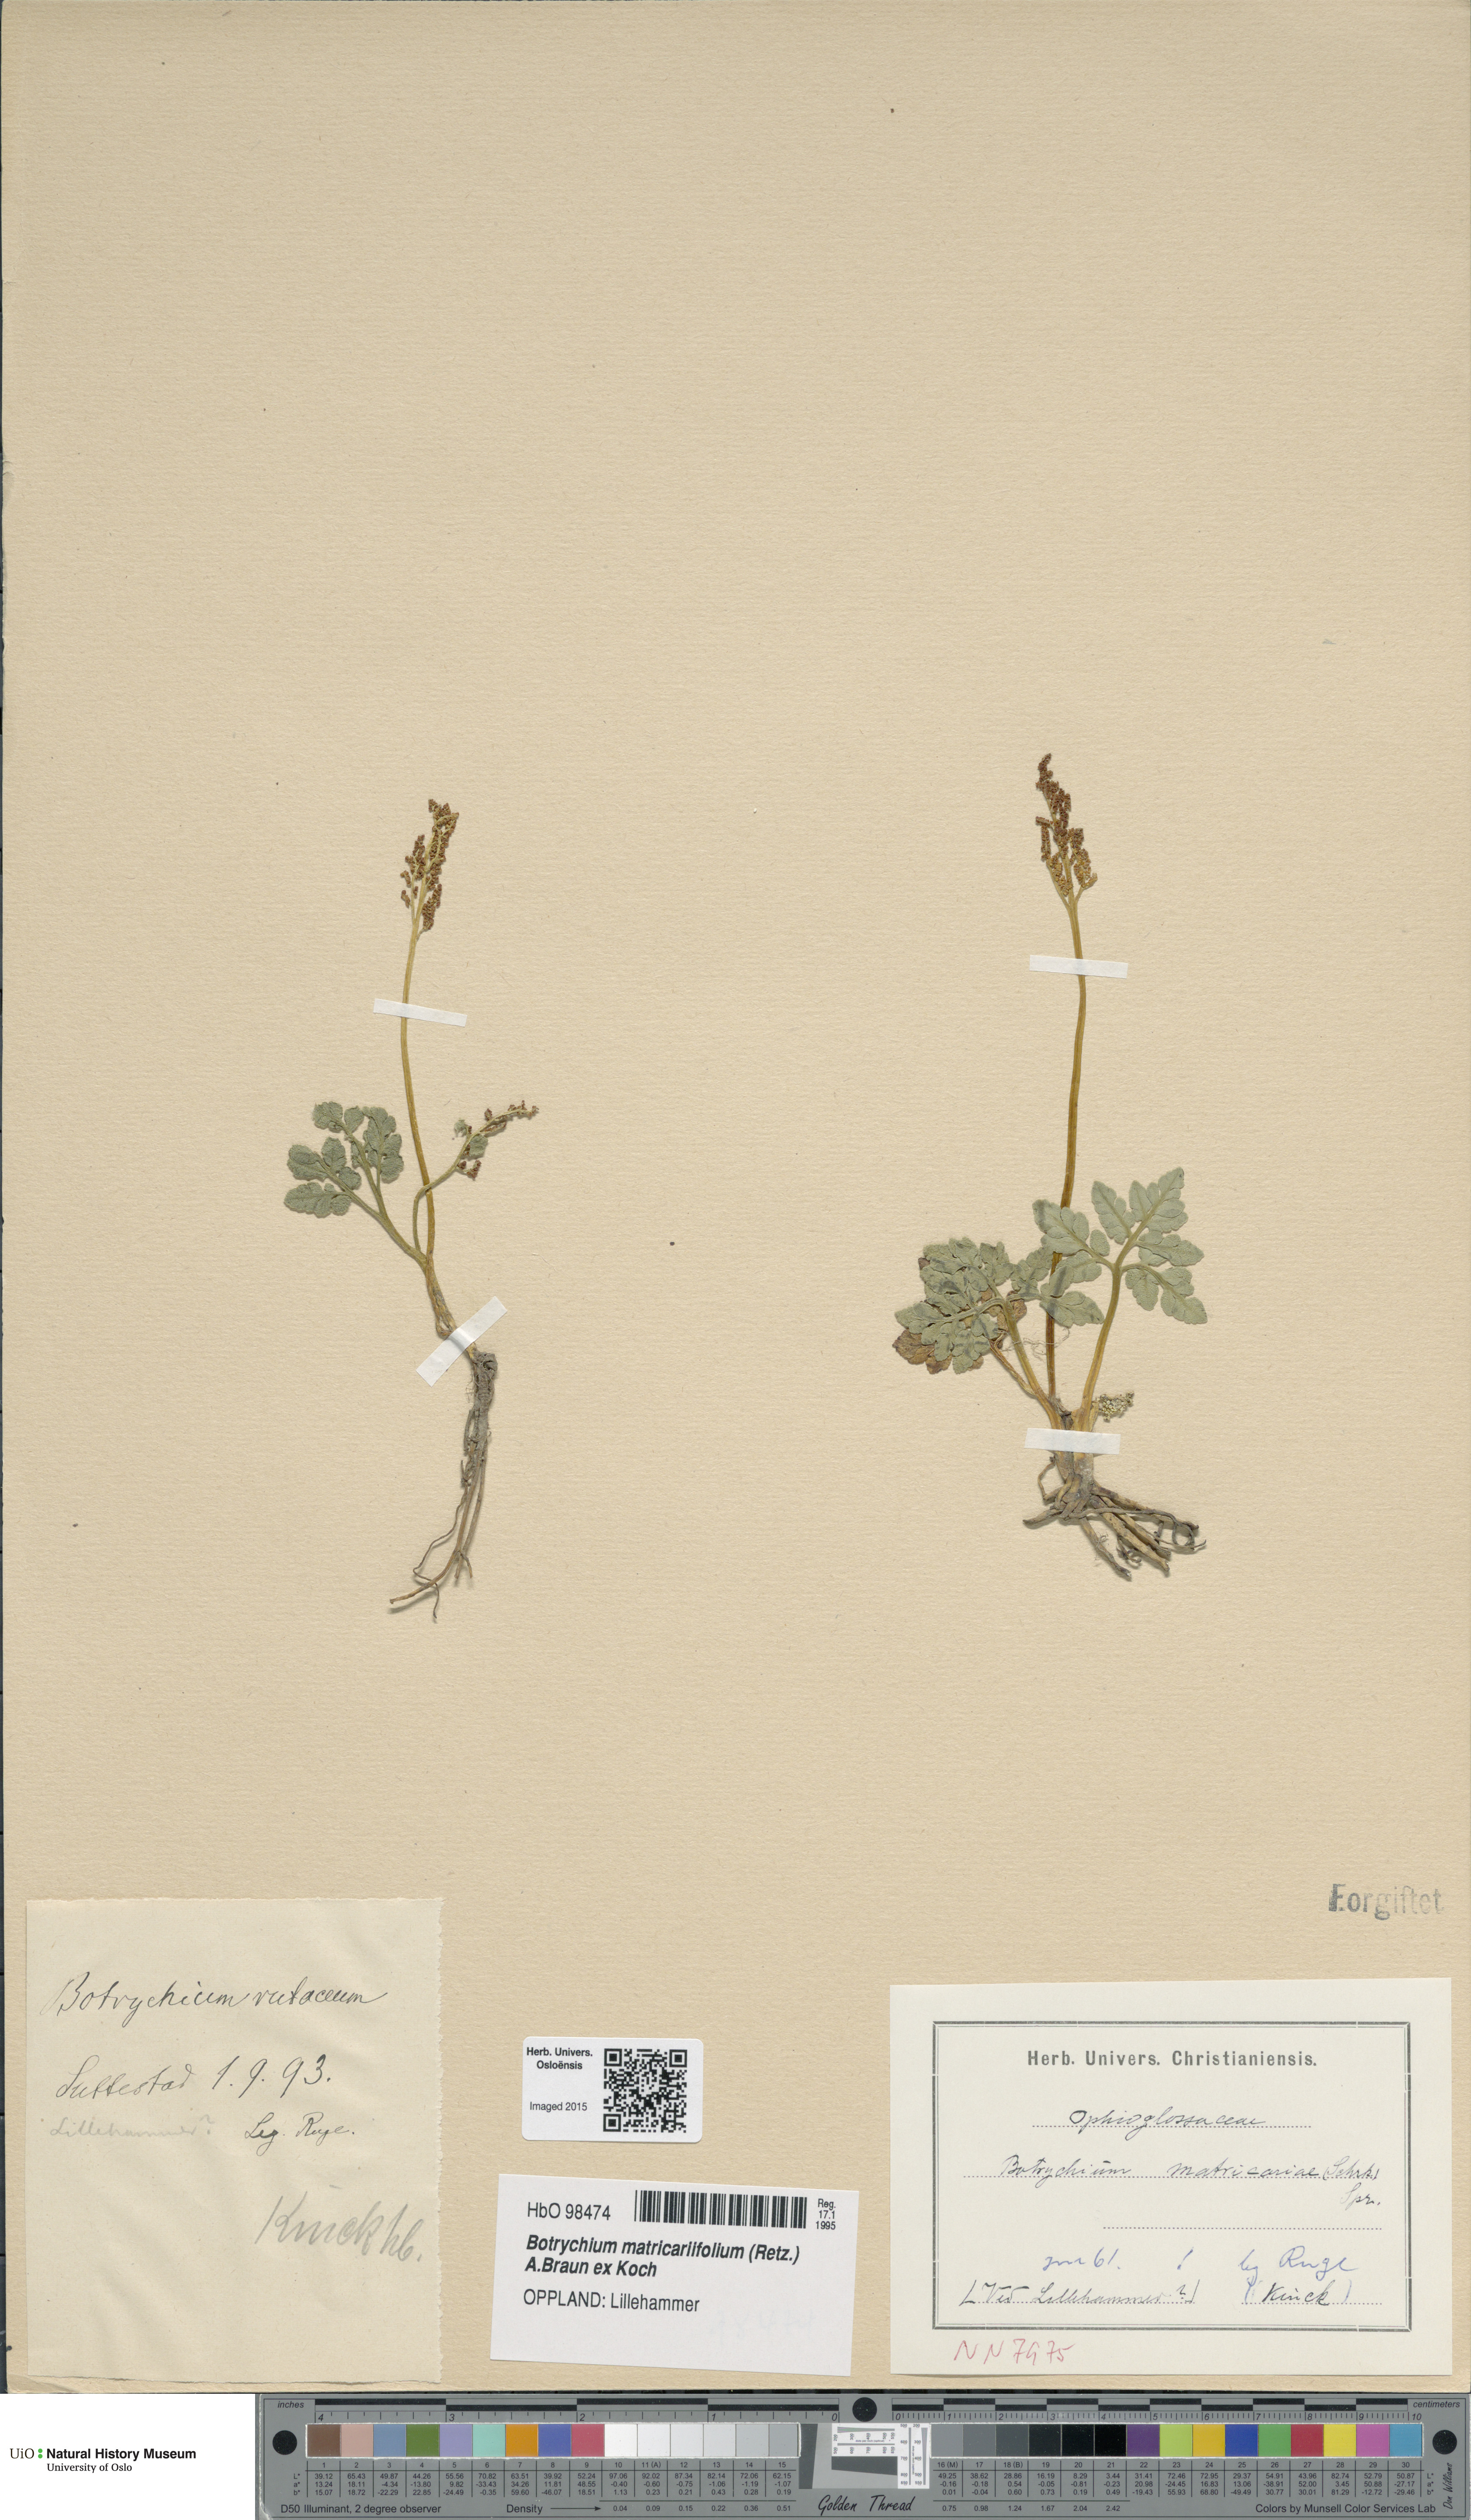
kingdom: Plantae
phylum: Tracheophyta
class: Polypodiopsida
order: Ophioglossales
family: Ophioglossaceae
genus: Botrychium
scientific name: Botrychium matricariifolium
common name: Branched moonwort
